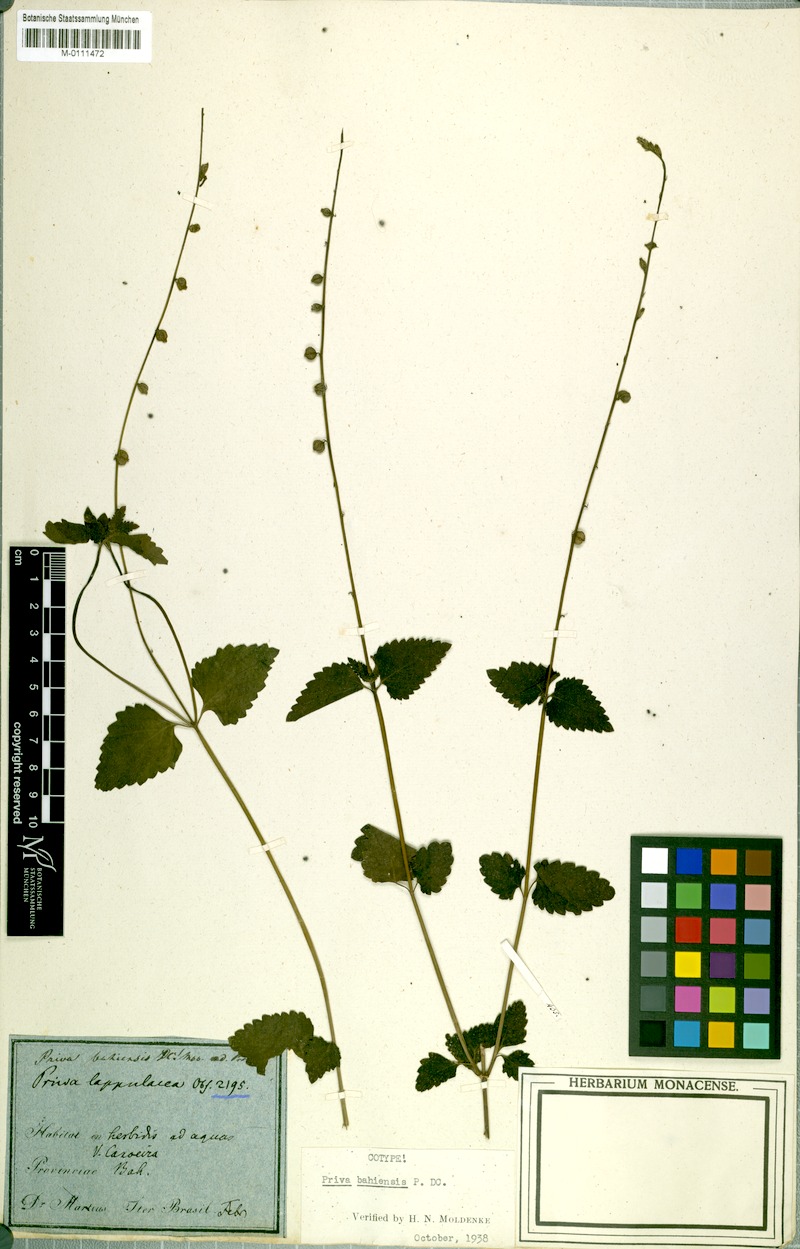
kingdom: Plantae
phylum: Tracheophyta
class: Magnoliopsida
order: Lamiales
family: Verbenaceae
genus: Priva
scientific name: Priva bahiensis
